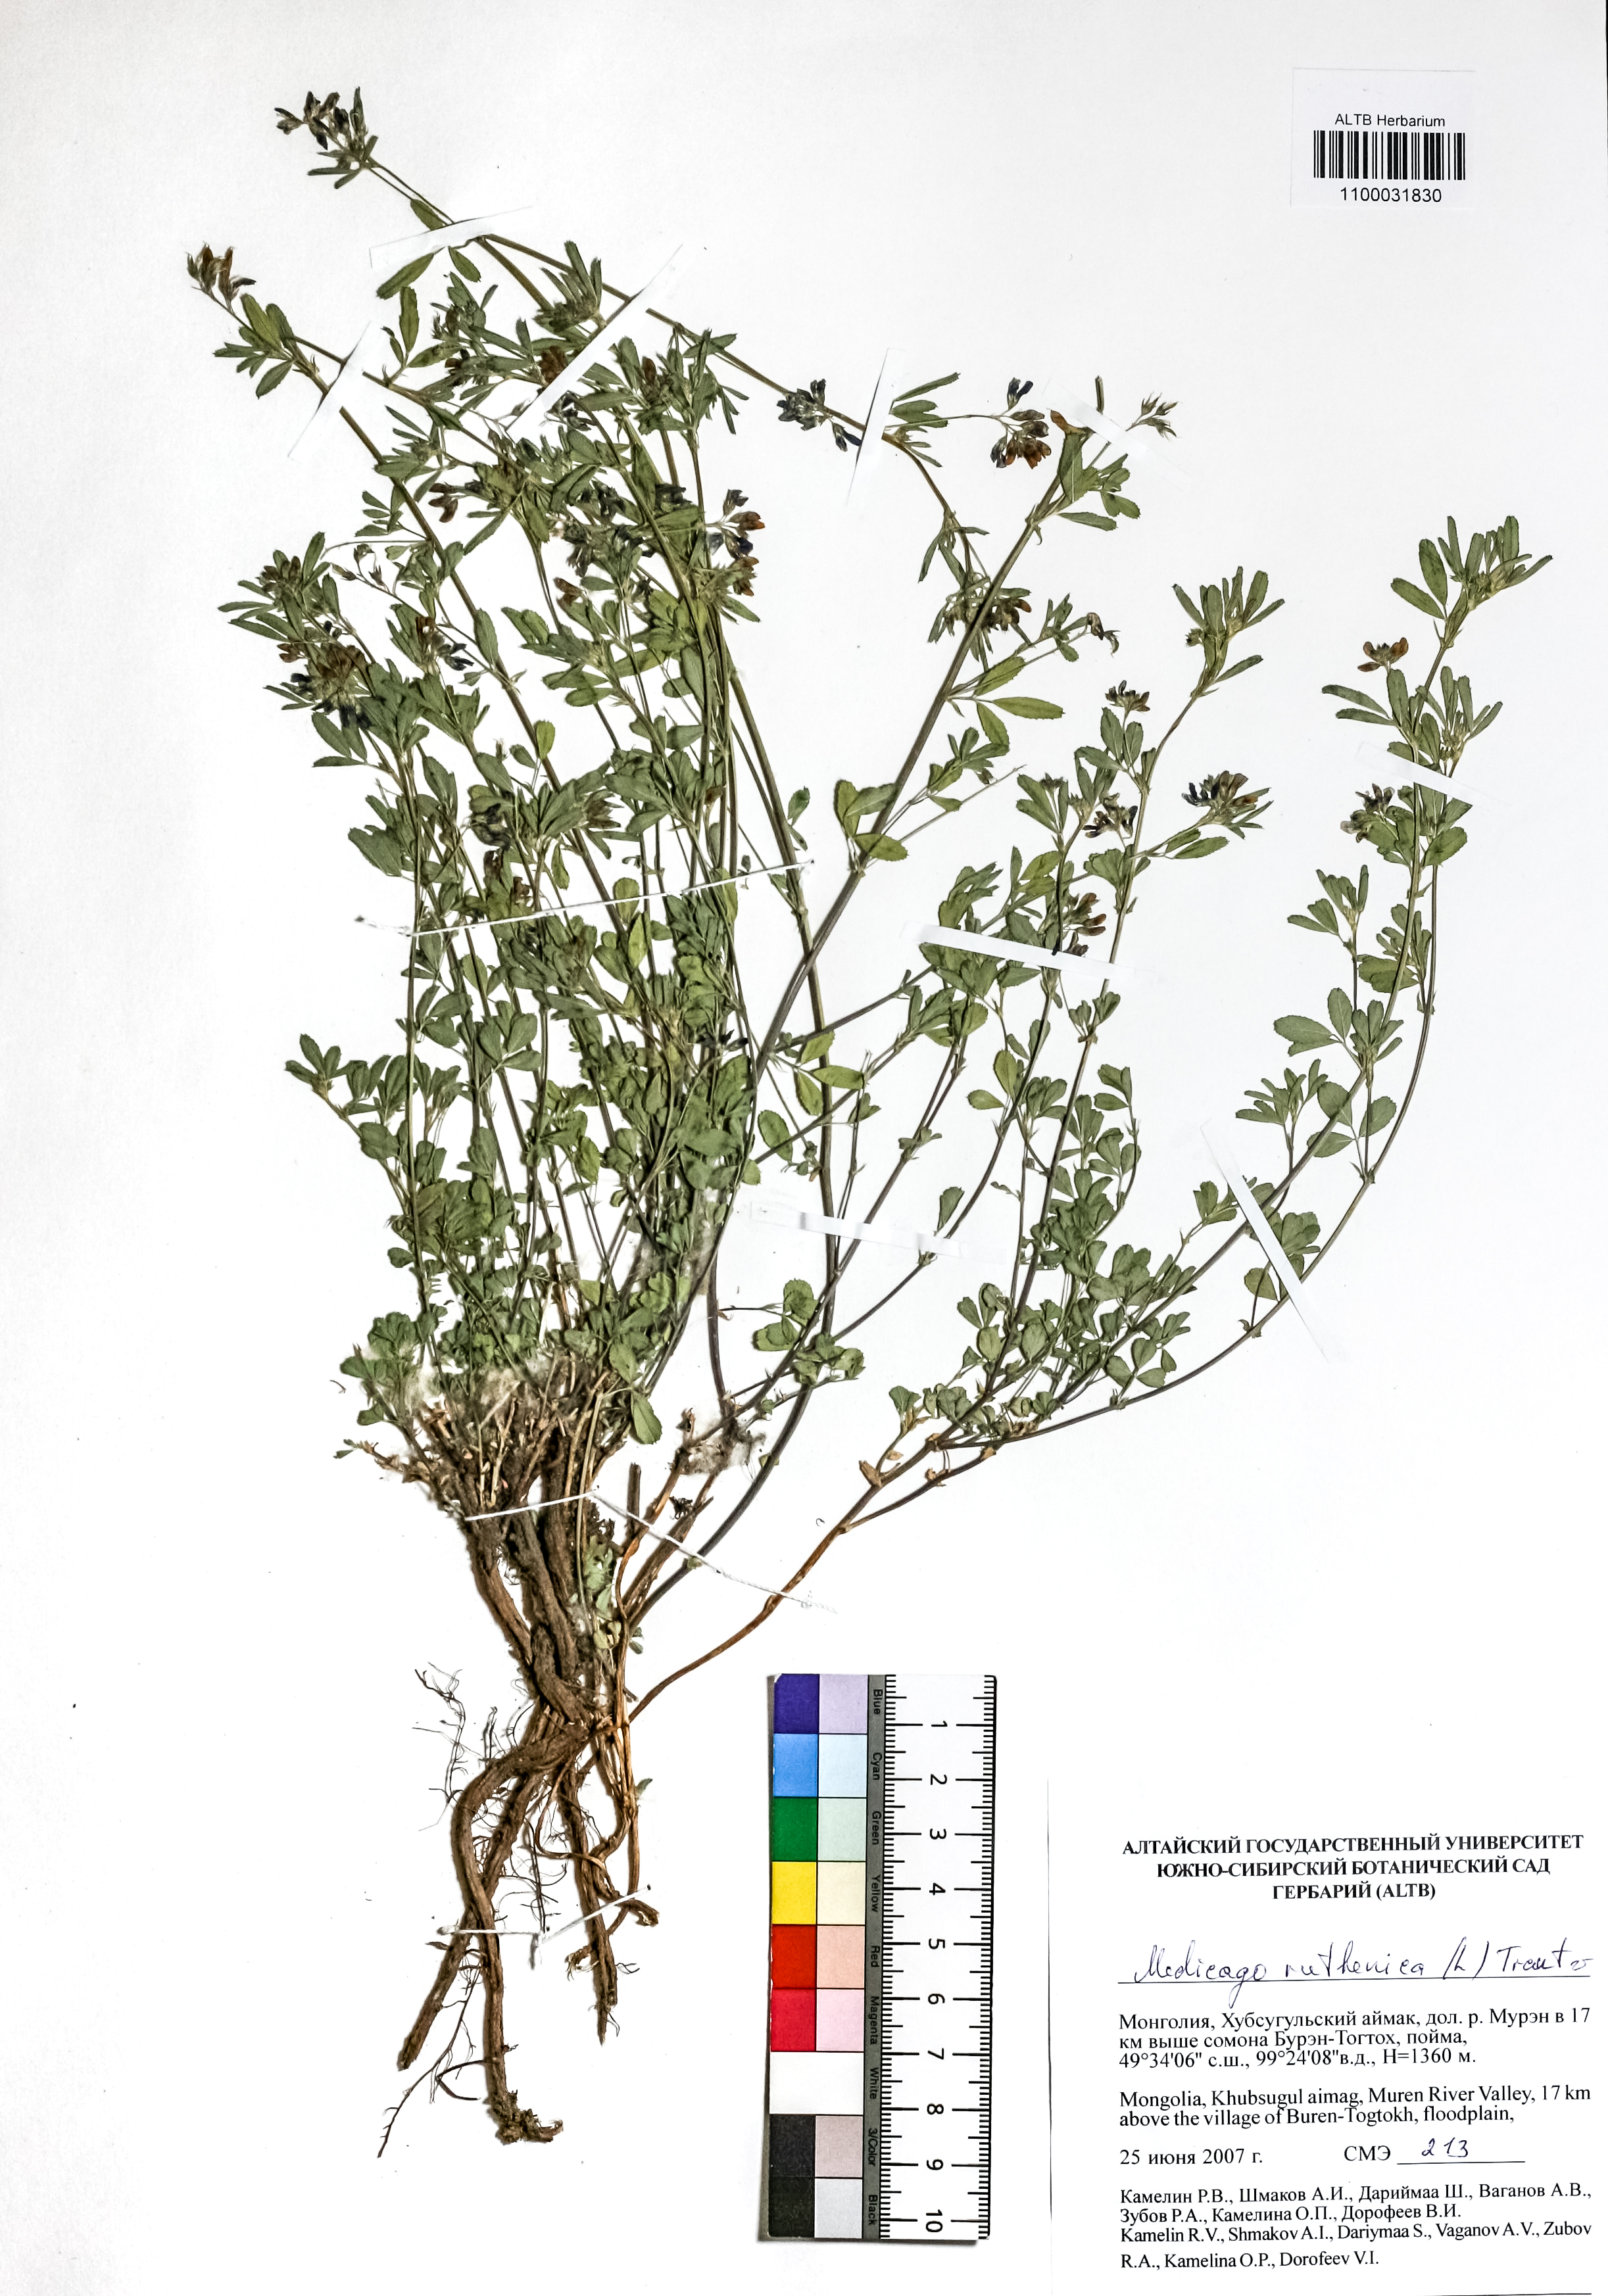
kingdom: Plantae
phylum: Tracheophyta
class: Magnoliopsida
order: Fabales
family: Fabaceae
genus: Medicago
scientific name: Medicago ruthenica
